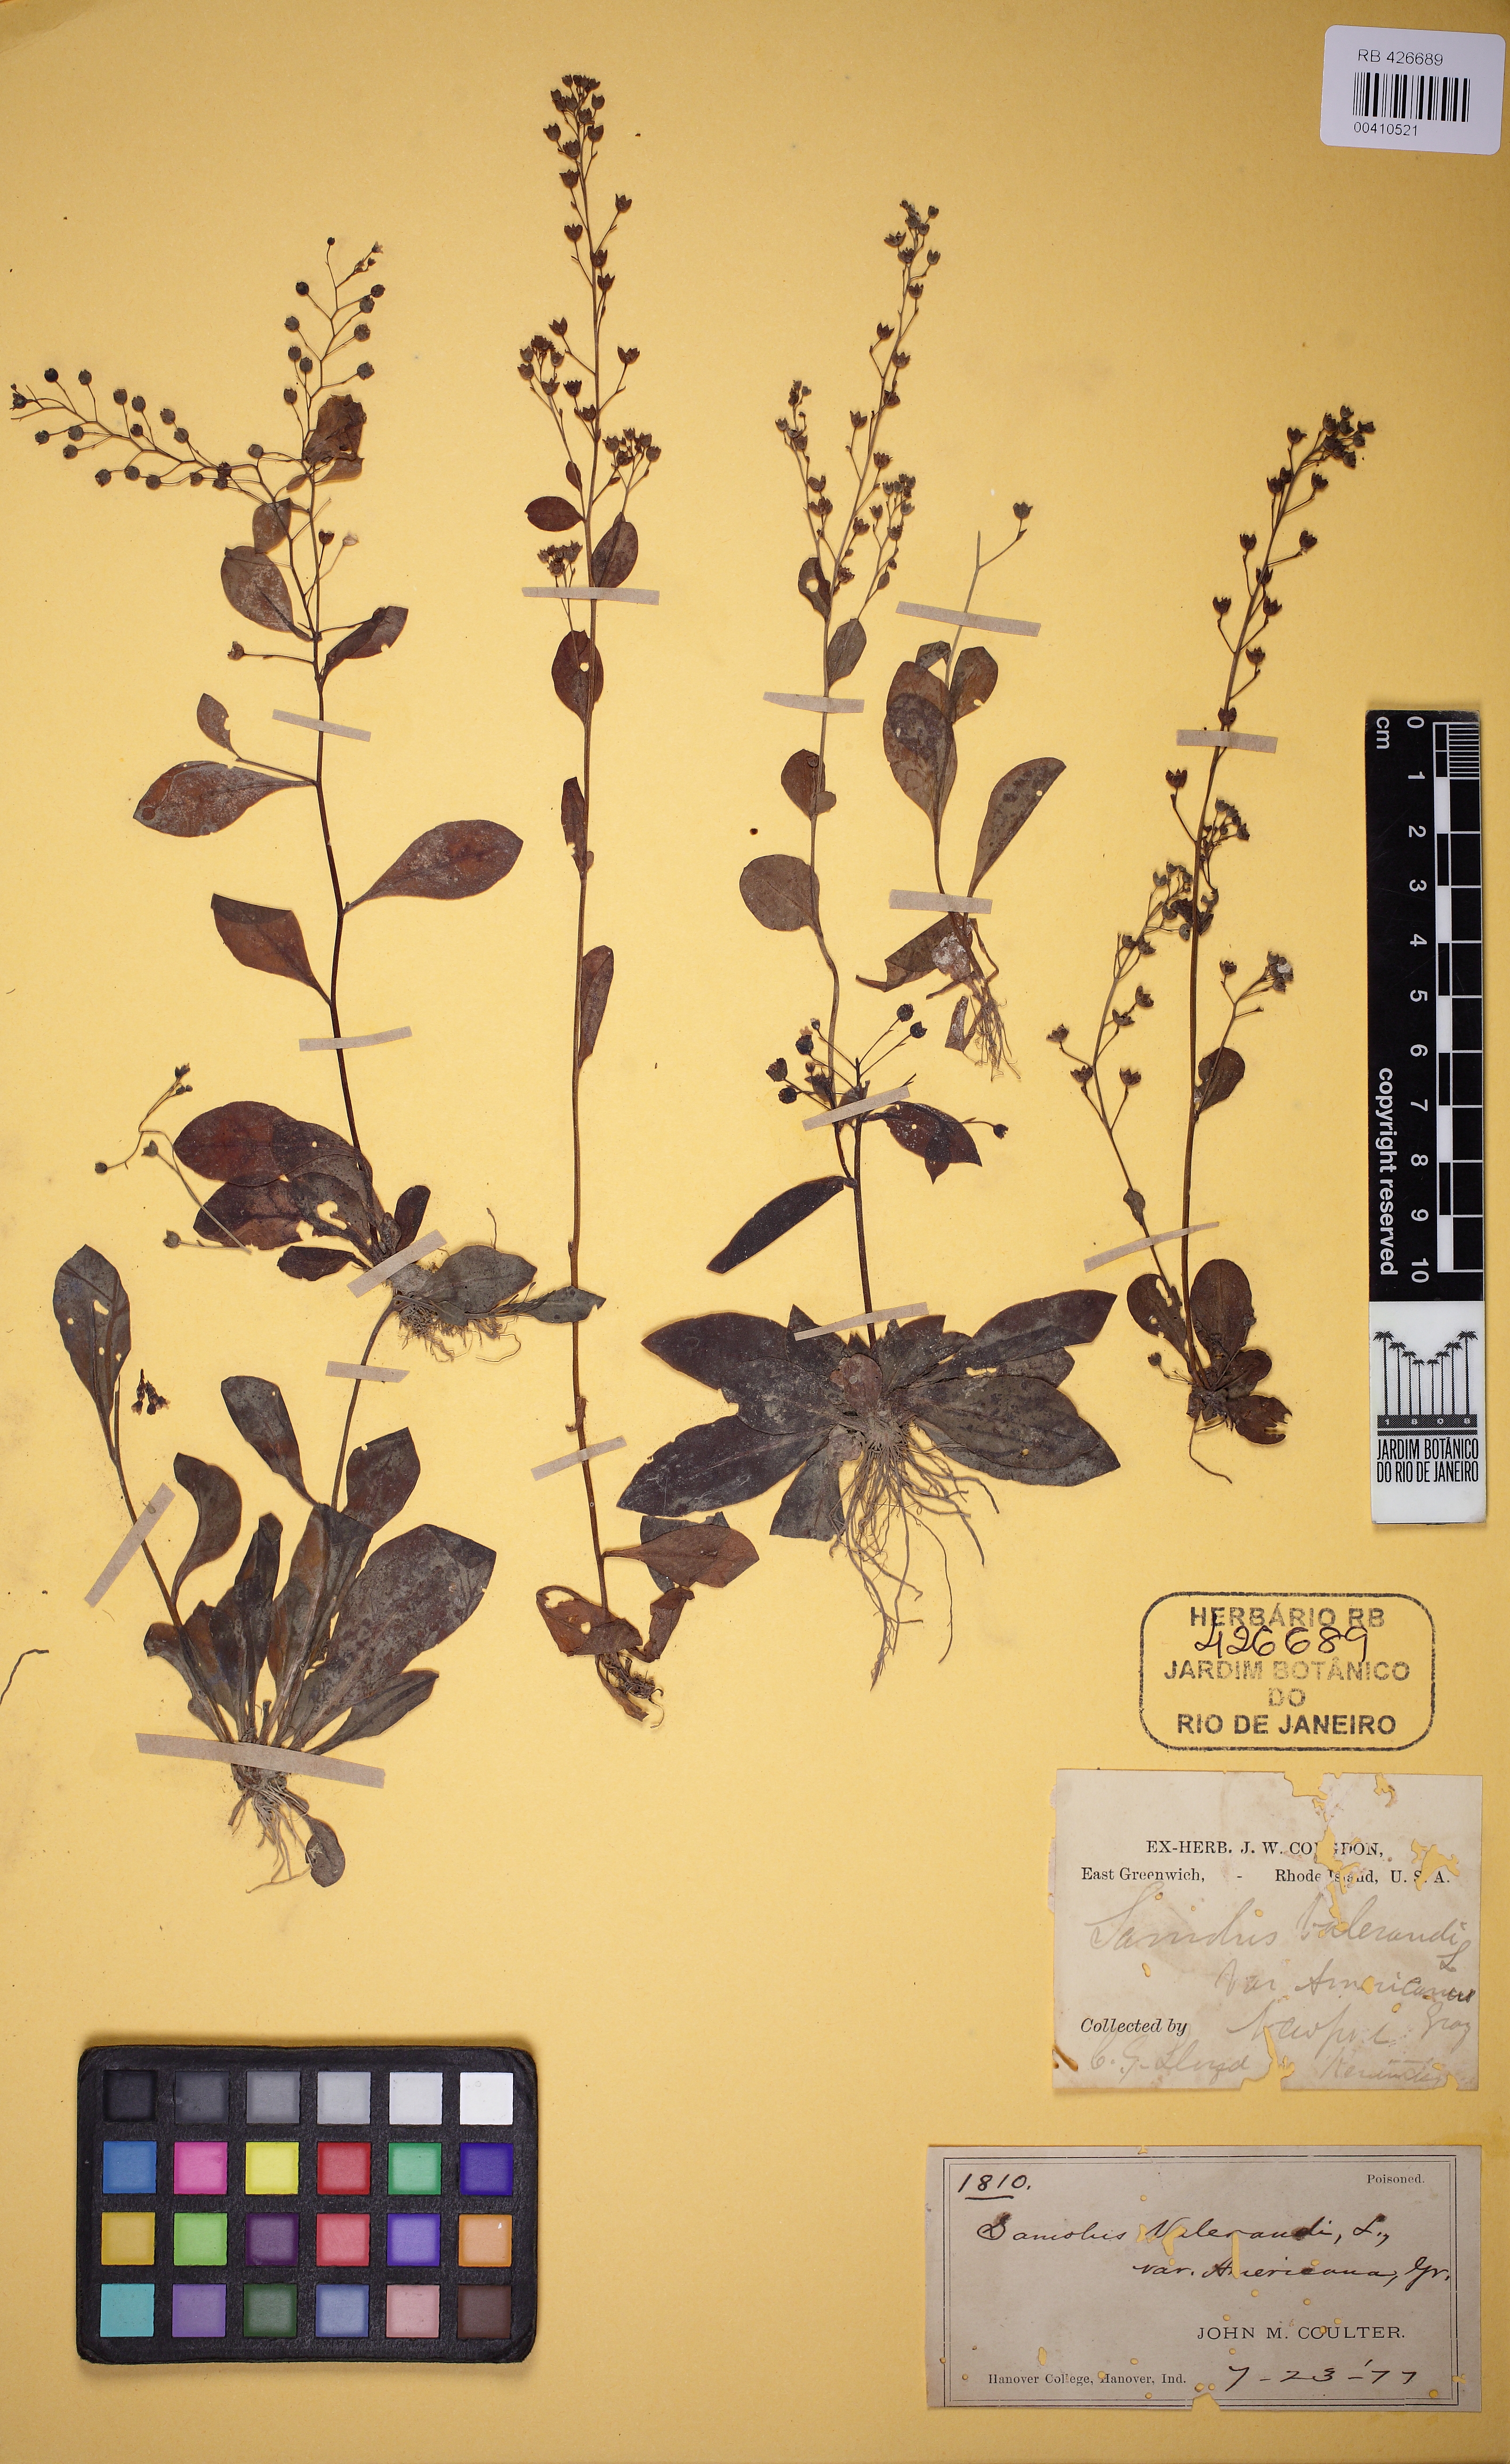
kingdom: Plantae
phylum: Tracheophyta
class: Magnoliopsida
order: Ericales
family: Primulaceae
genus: Samolus
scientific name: Samolus valerandi
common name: Brookweed
